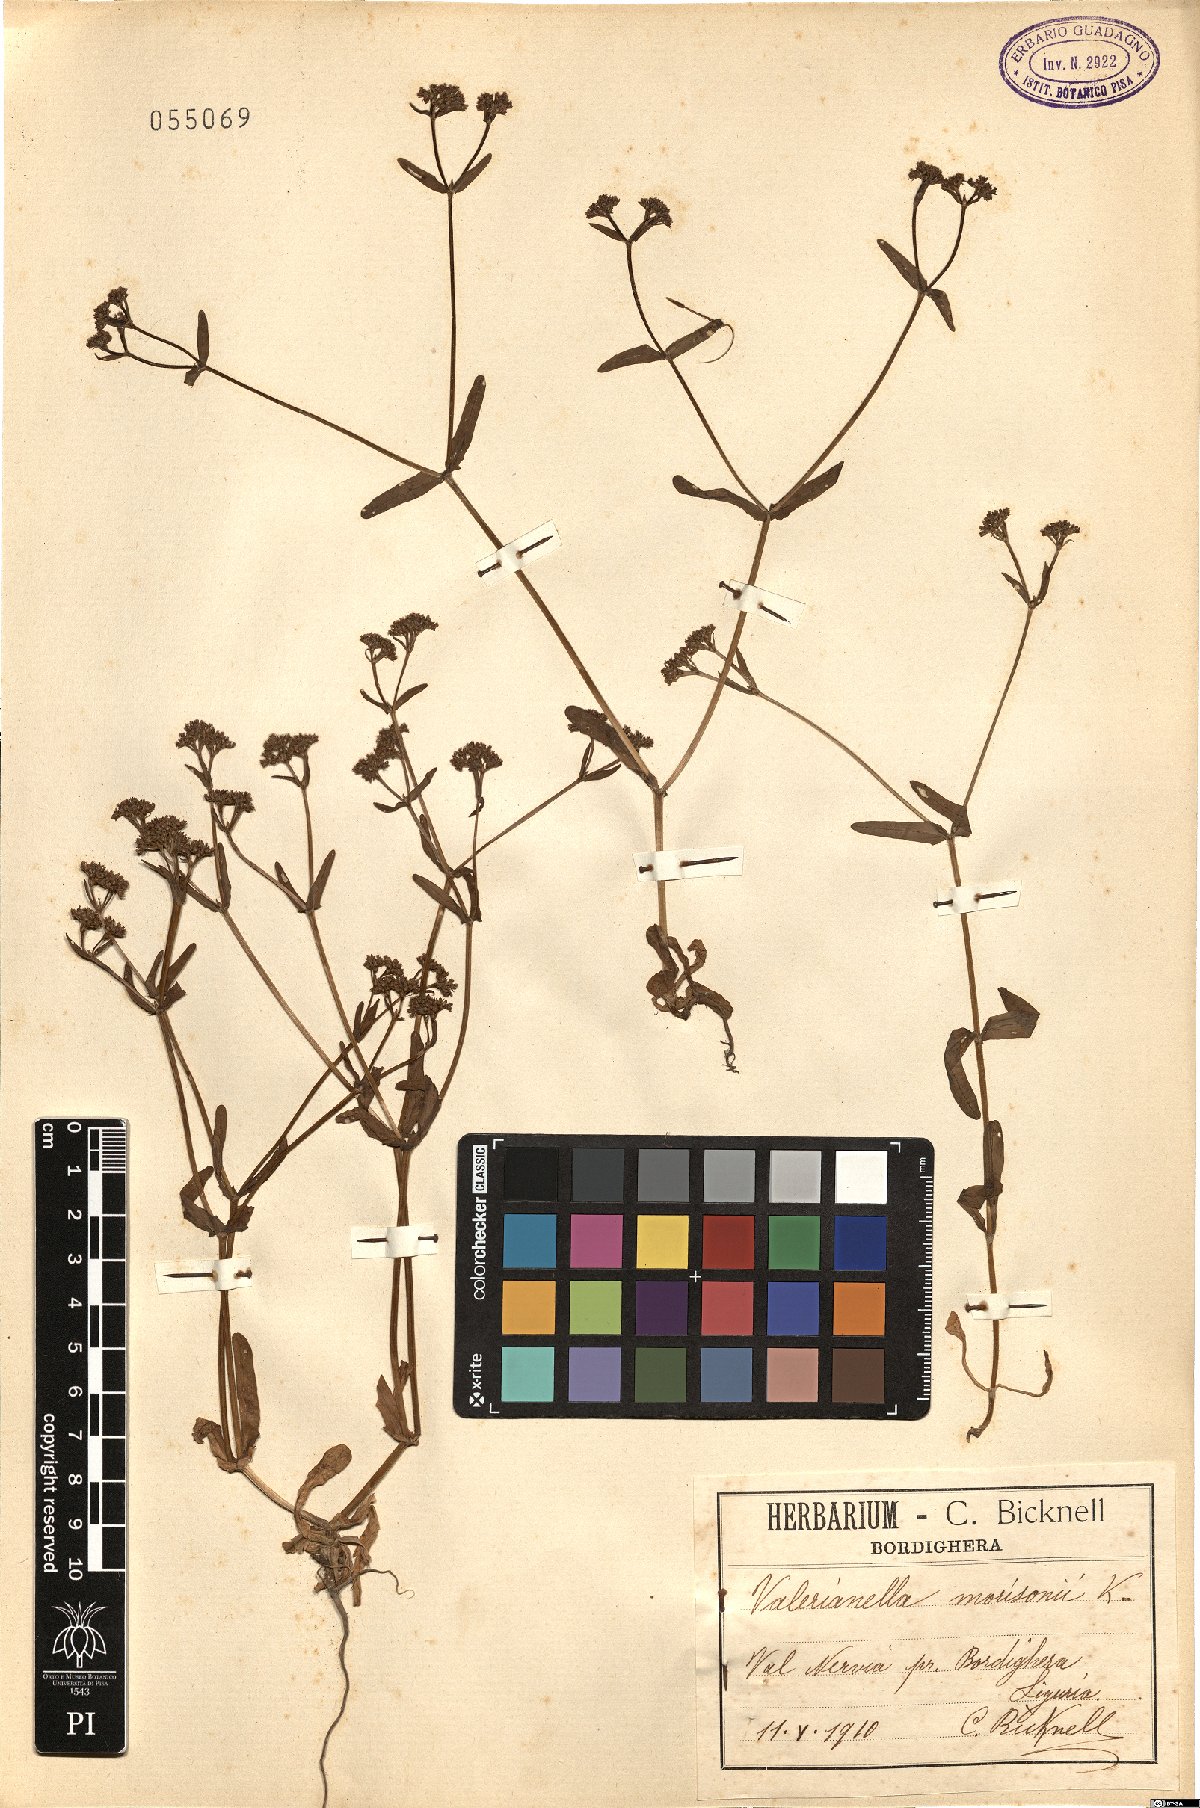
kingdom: Plantae
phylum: Tracheophyta
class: Magnoliopsida
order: Dipsacales
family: Caprifoliaceae
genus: Valerianella
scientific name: Valerianella dentata
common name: Narrow-fruited cornsalad
